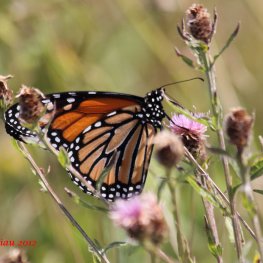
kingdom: Animalia
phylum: Arthropoda
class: Insecta
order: Lepidoptera
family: Nymphalidae
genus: Danaus
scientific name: Danaus plexippus
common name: Monarch
